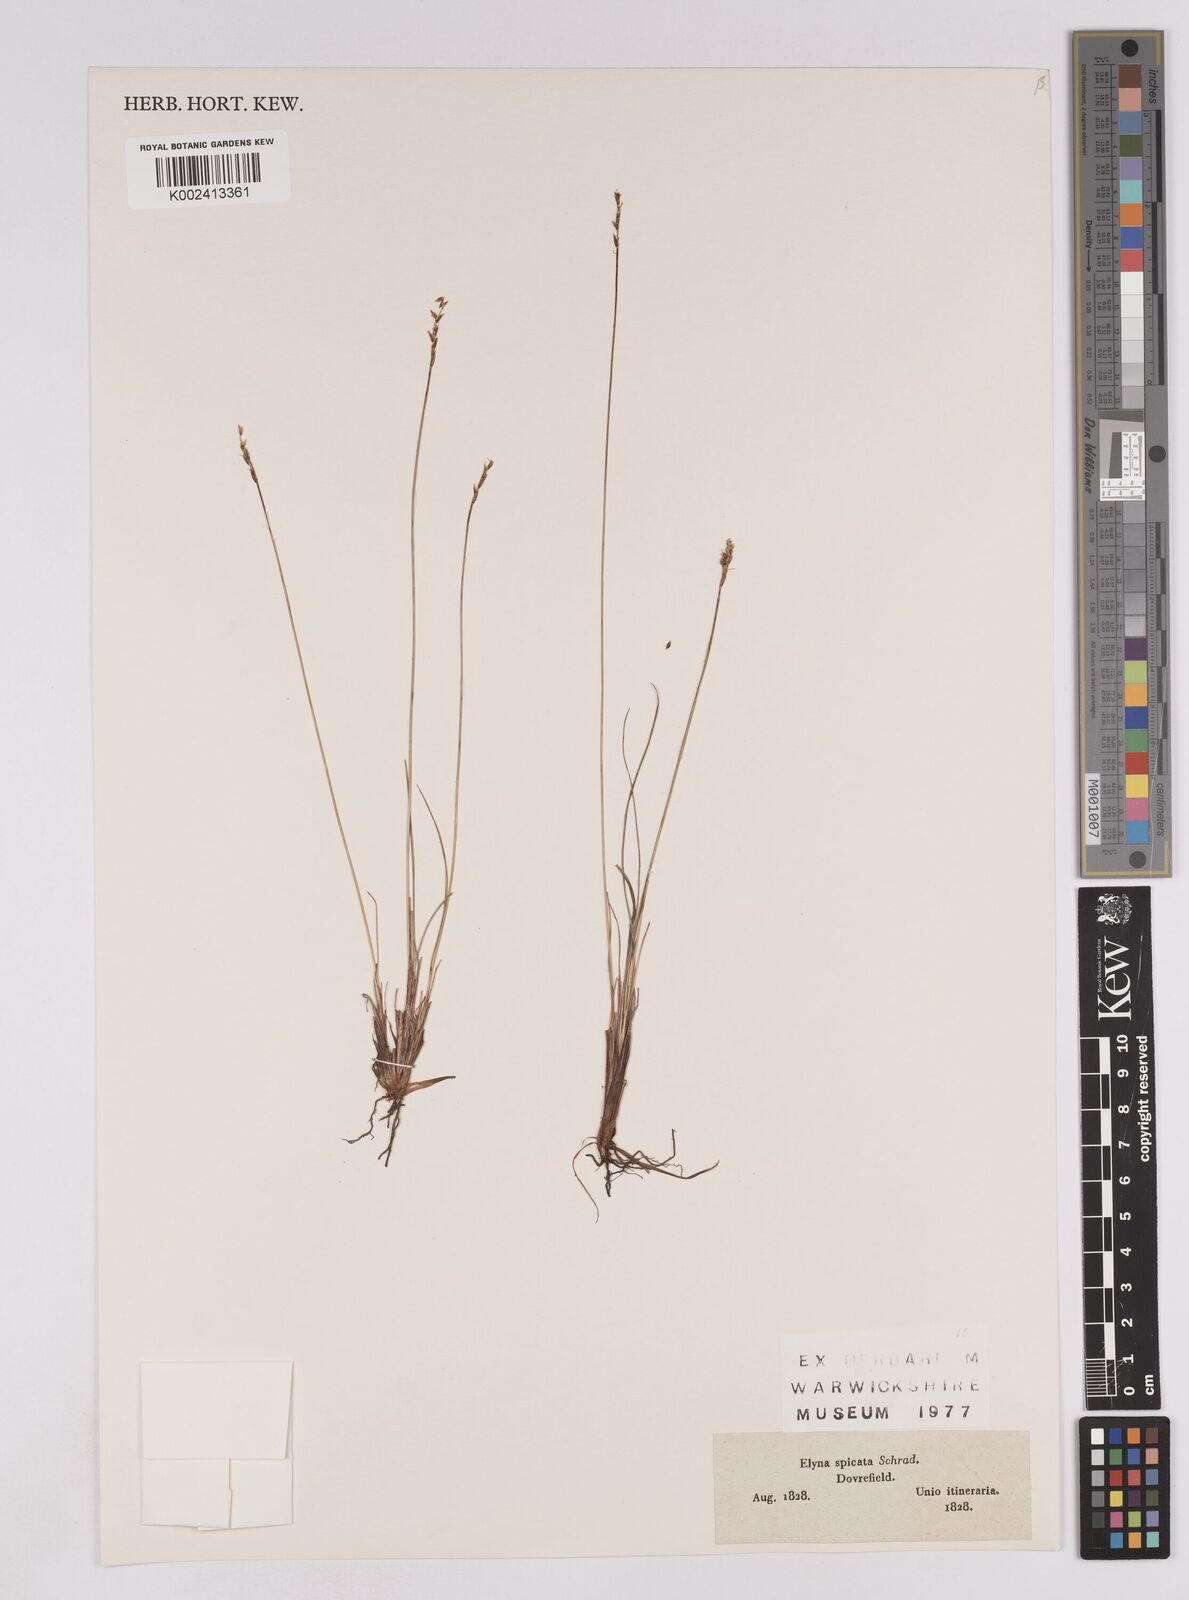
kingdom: Plantae
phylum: Tracheophyta
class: Liliopsida
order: Poales
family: Cyperaceae
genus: Carex
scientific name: Carex myosuroides
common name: Bellard's bog sedge
